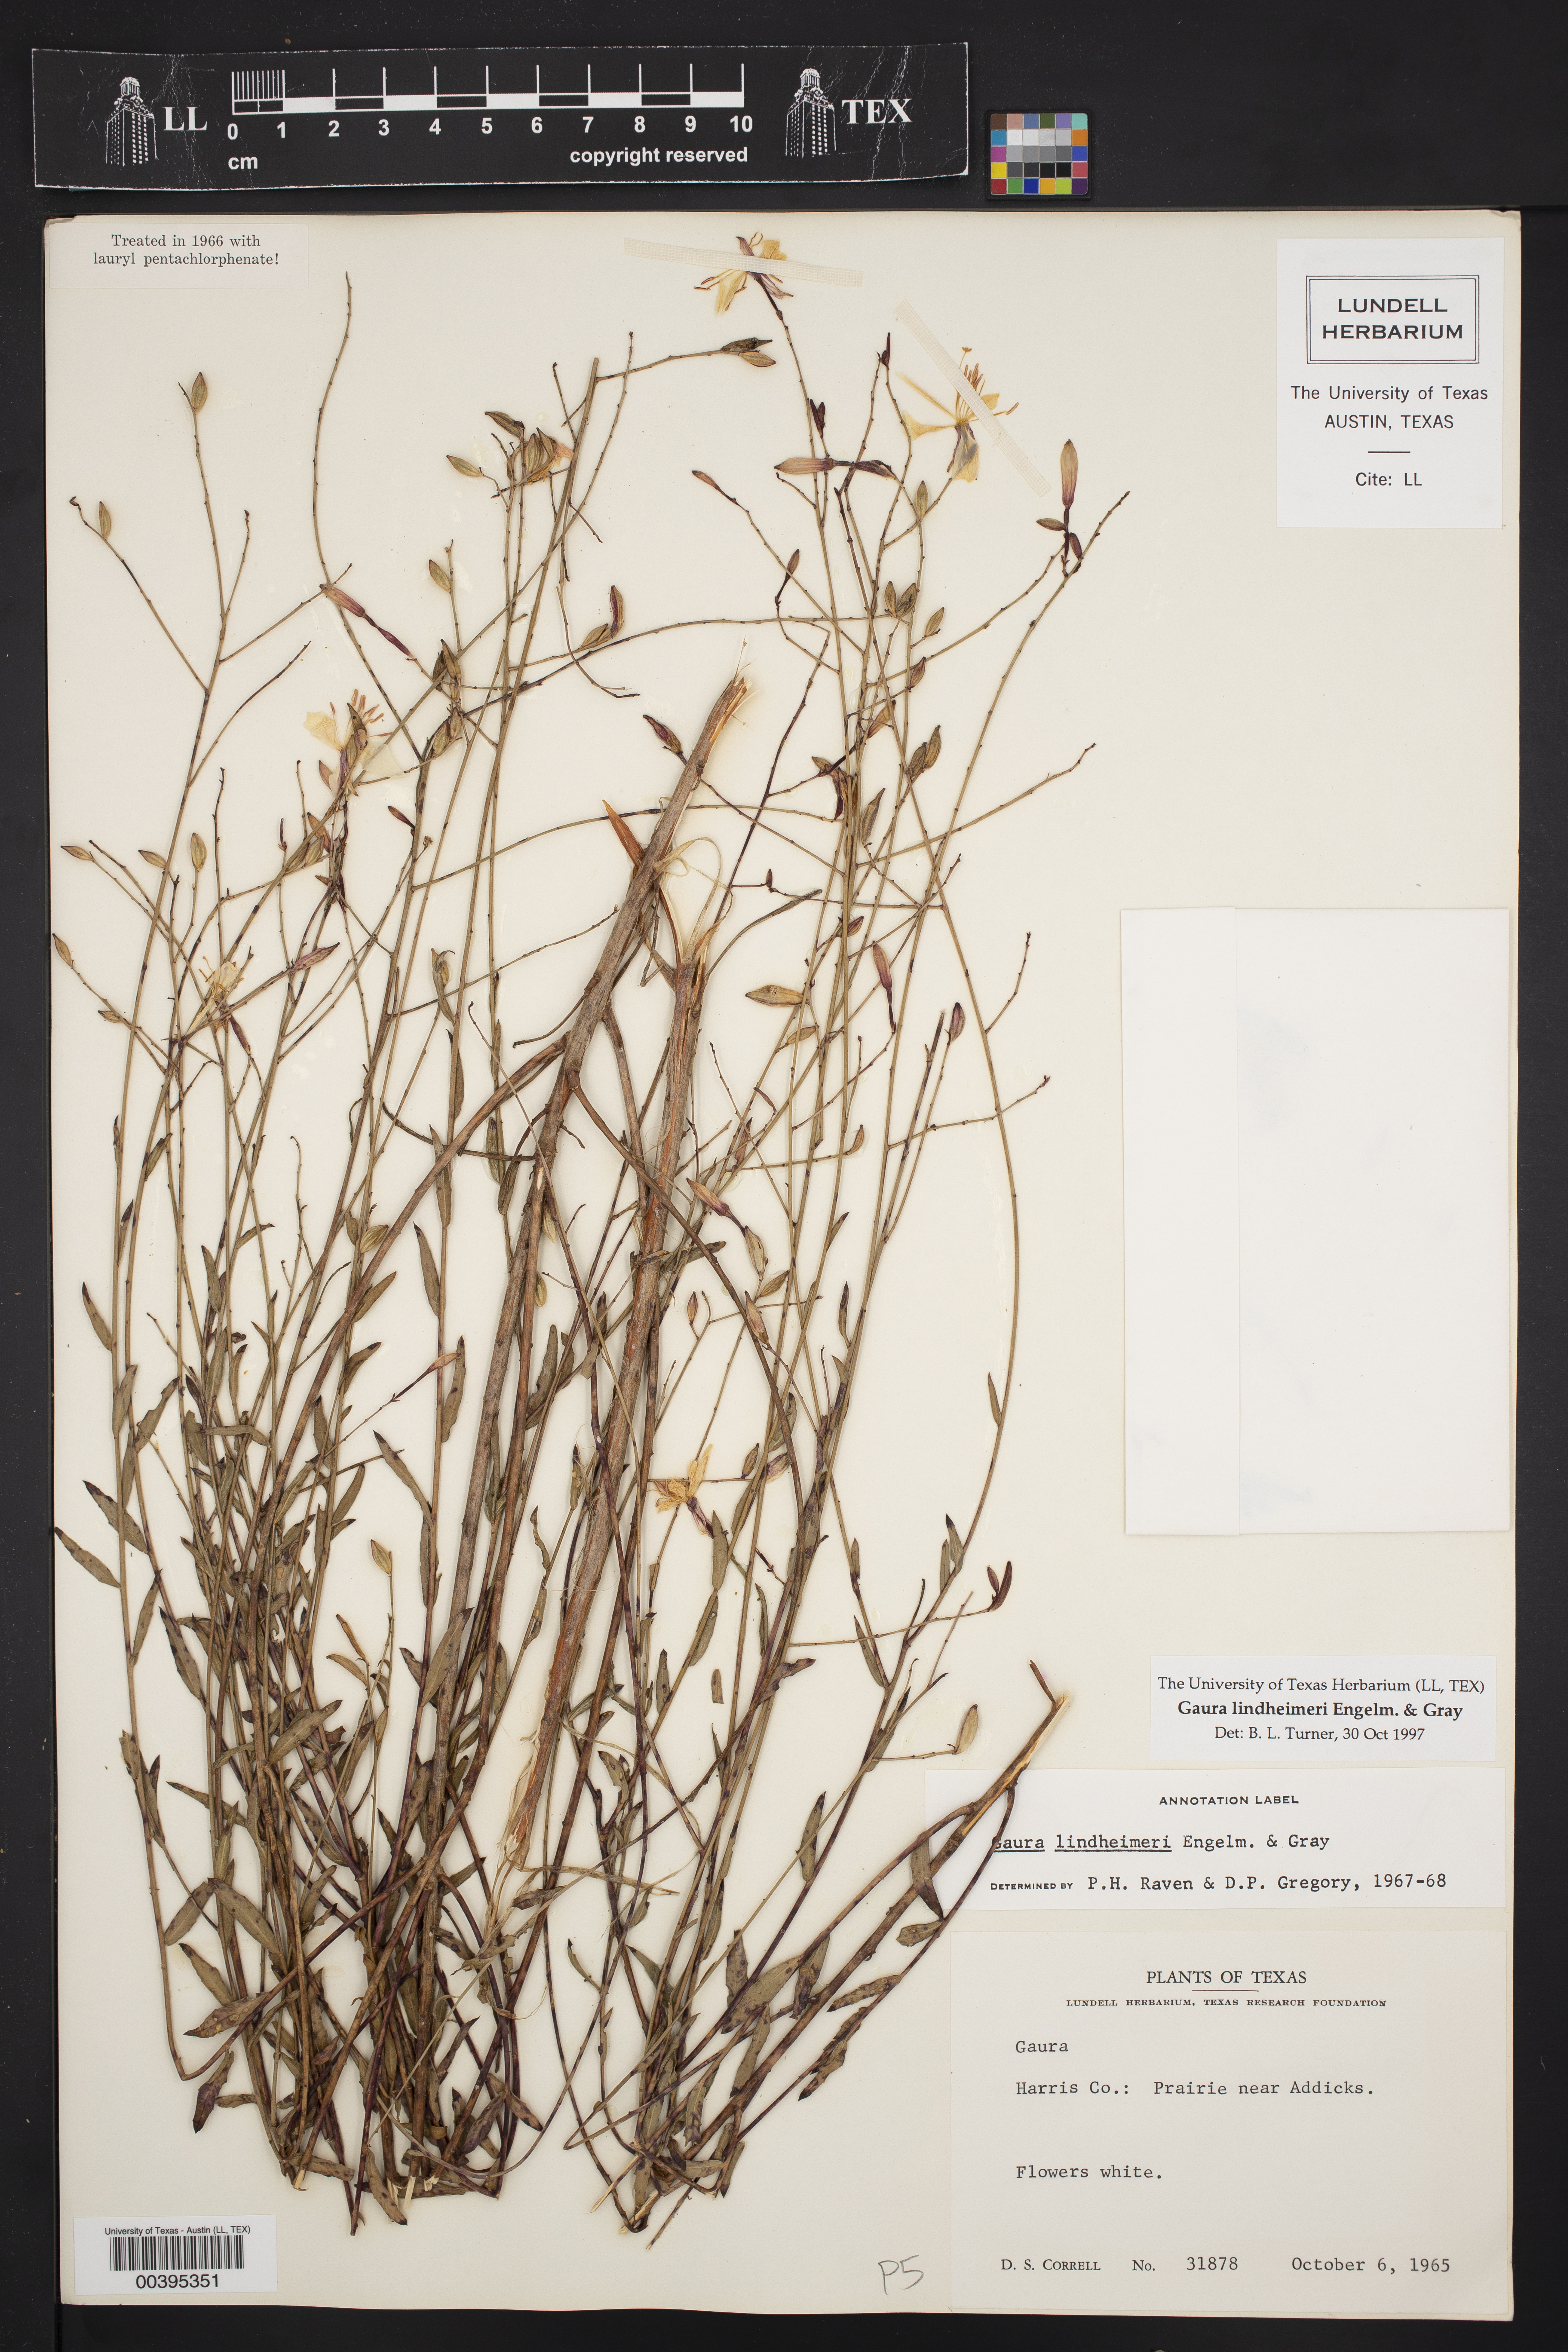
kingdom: Plantae
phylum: Tracheophyta
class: Magnoliopsida
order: Myrtales
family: Onagraceae
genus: Oenothera
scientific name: Oenothera lindheimeri
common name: Lindheimer's beeblossom
